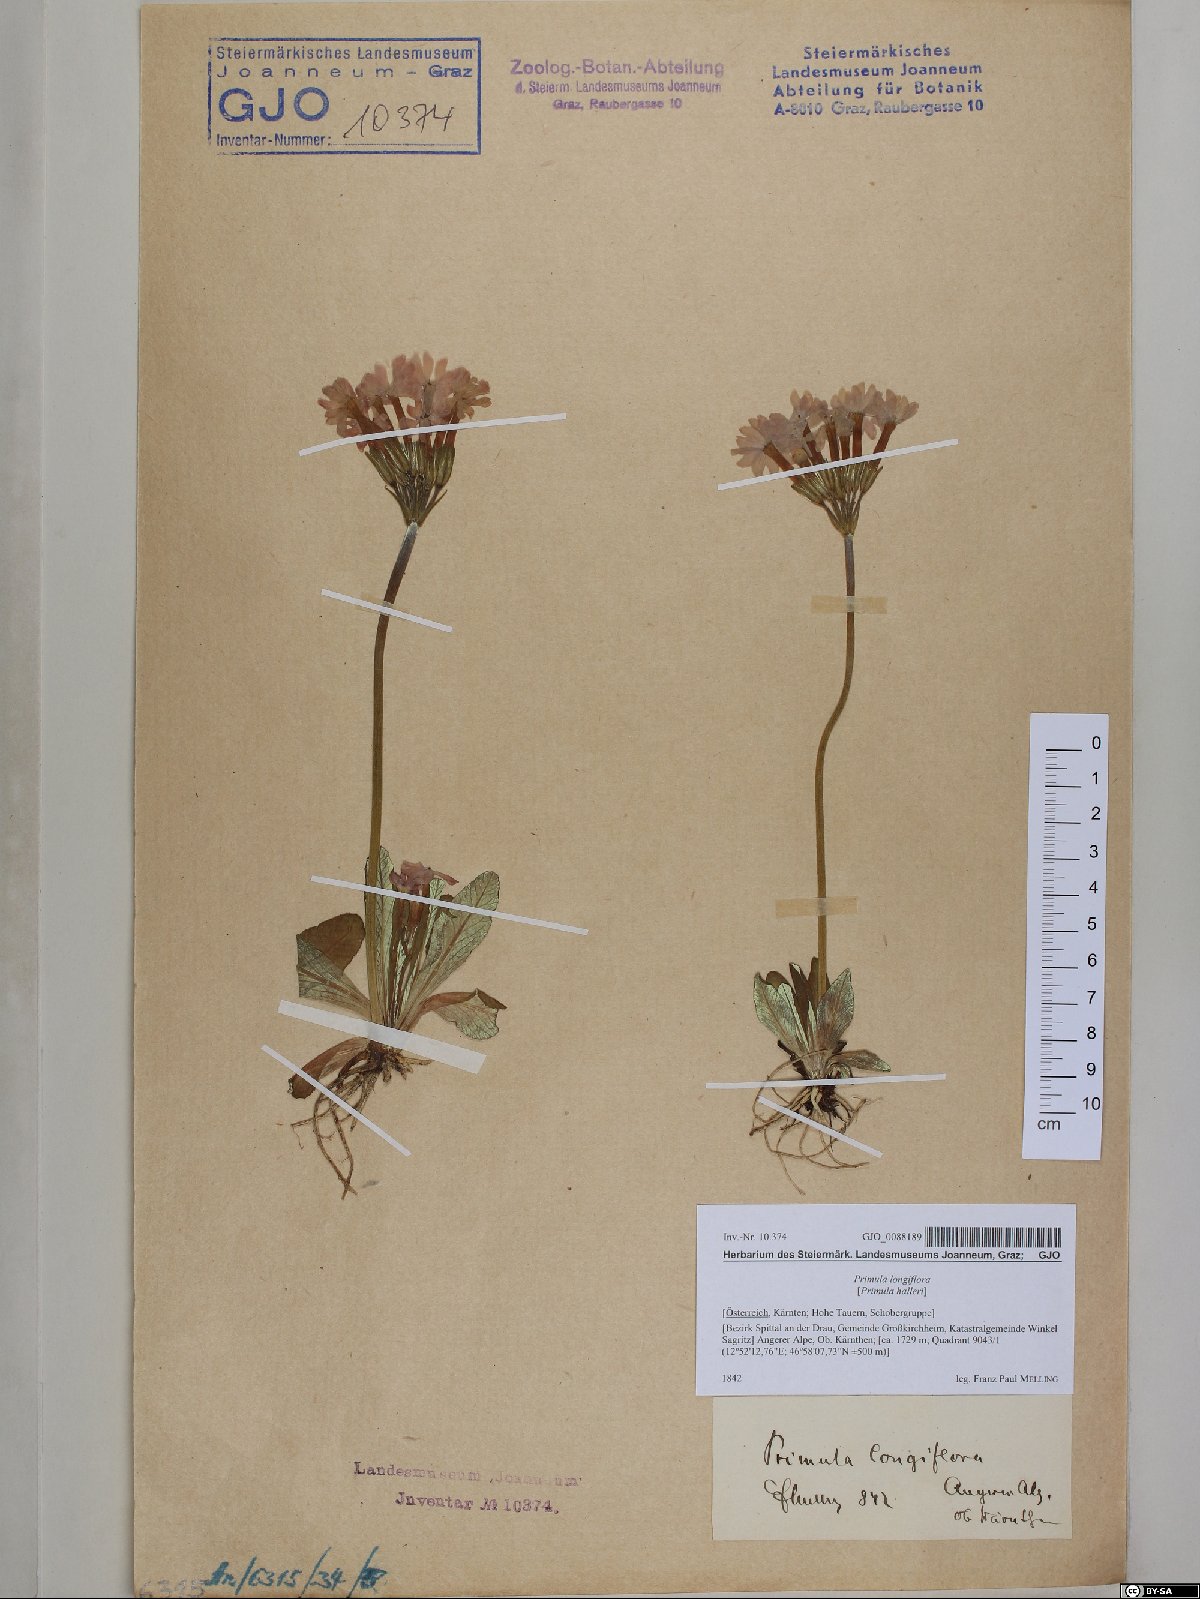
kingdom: Plantae
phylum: Tracheophyta
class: Magnoliopsida
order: Ericales
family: Primulaceae
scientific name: Primulaceae
